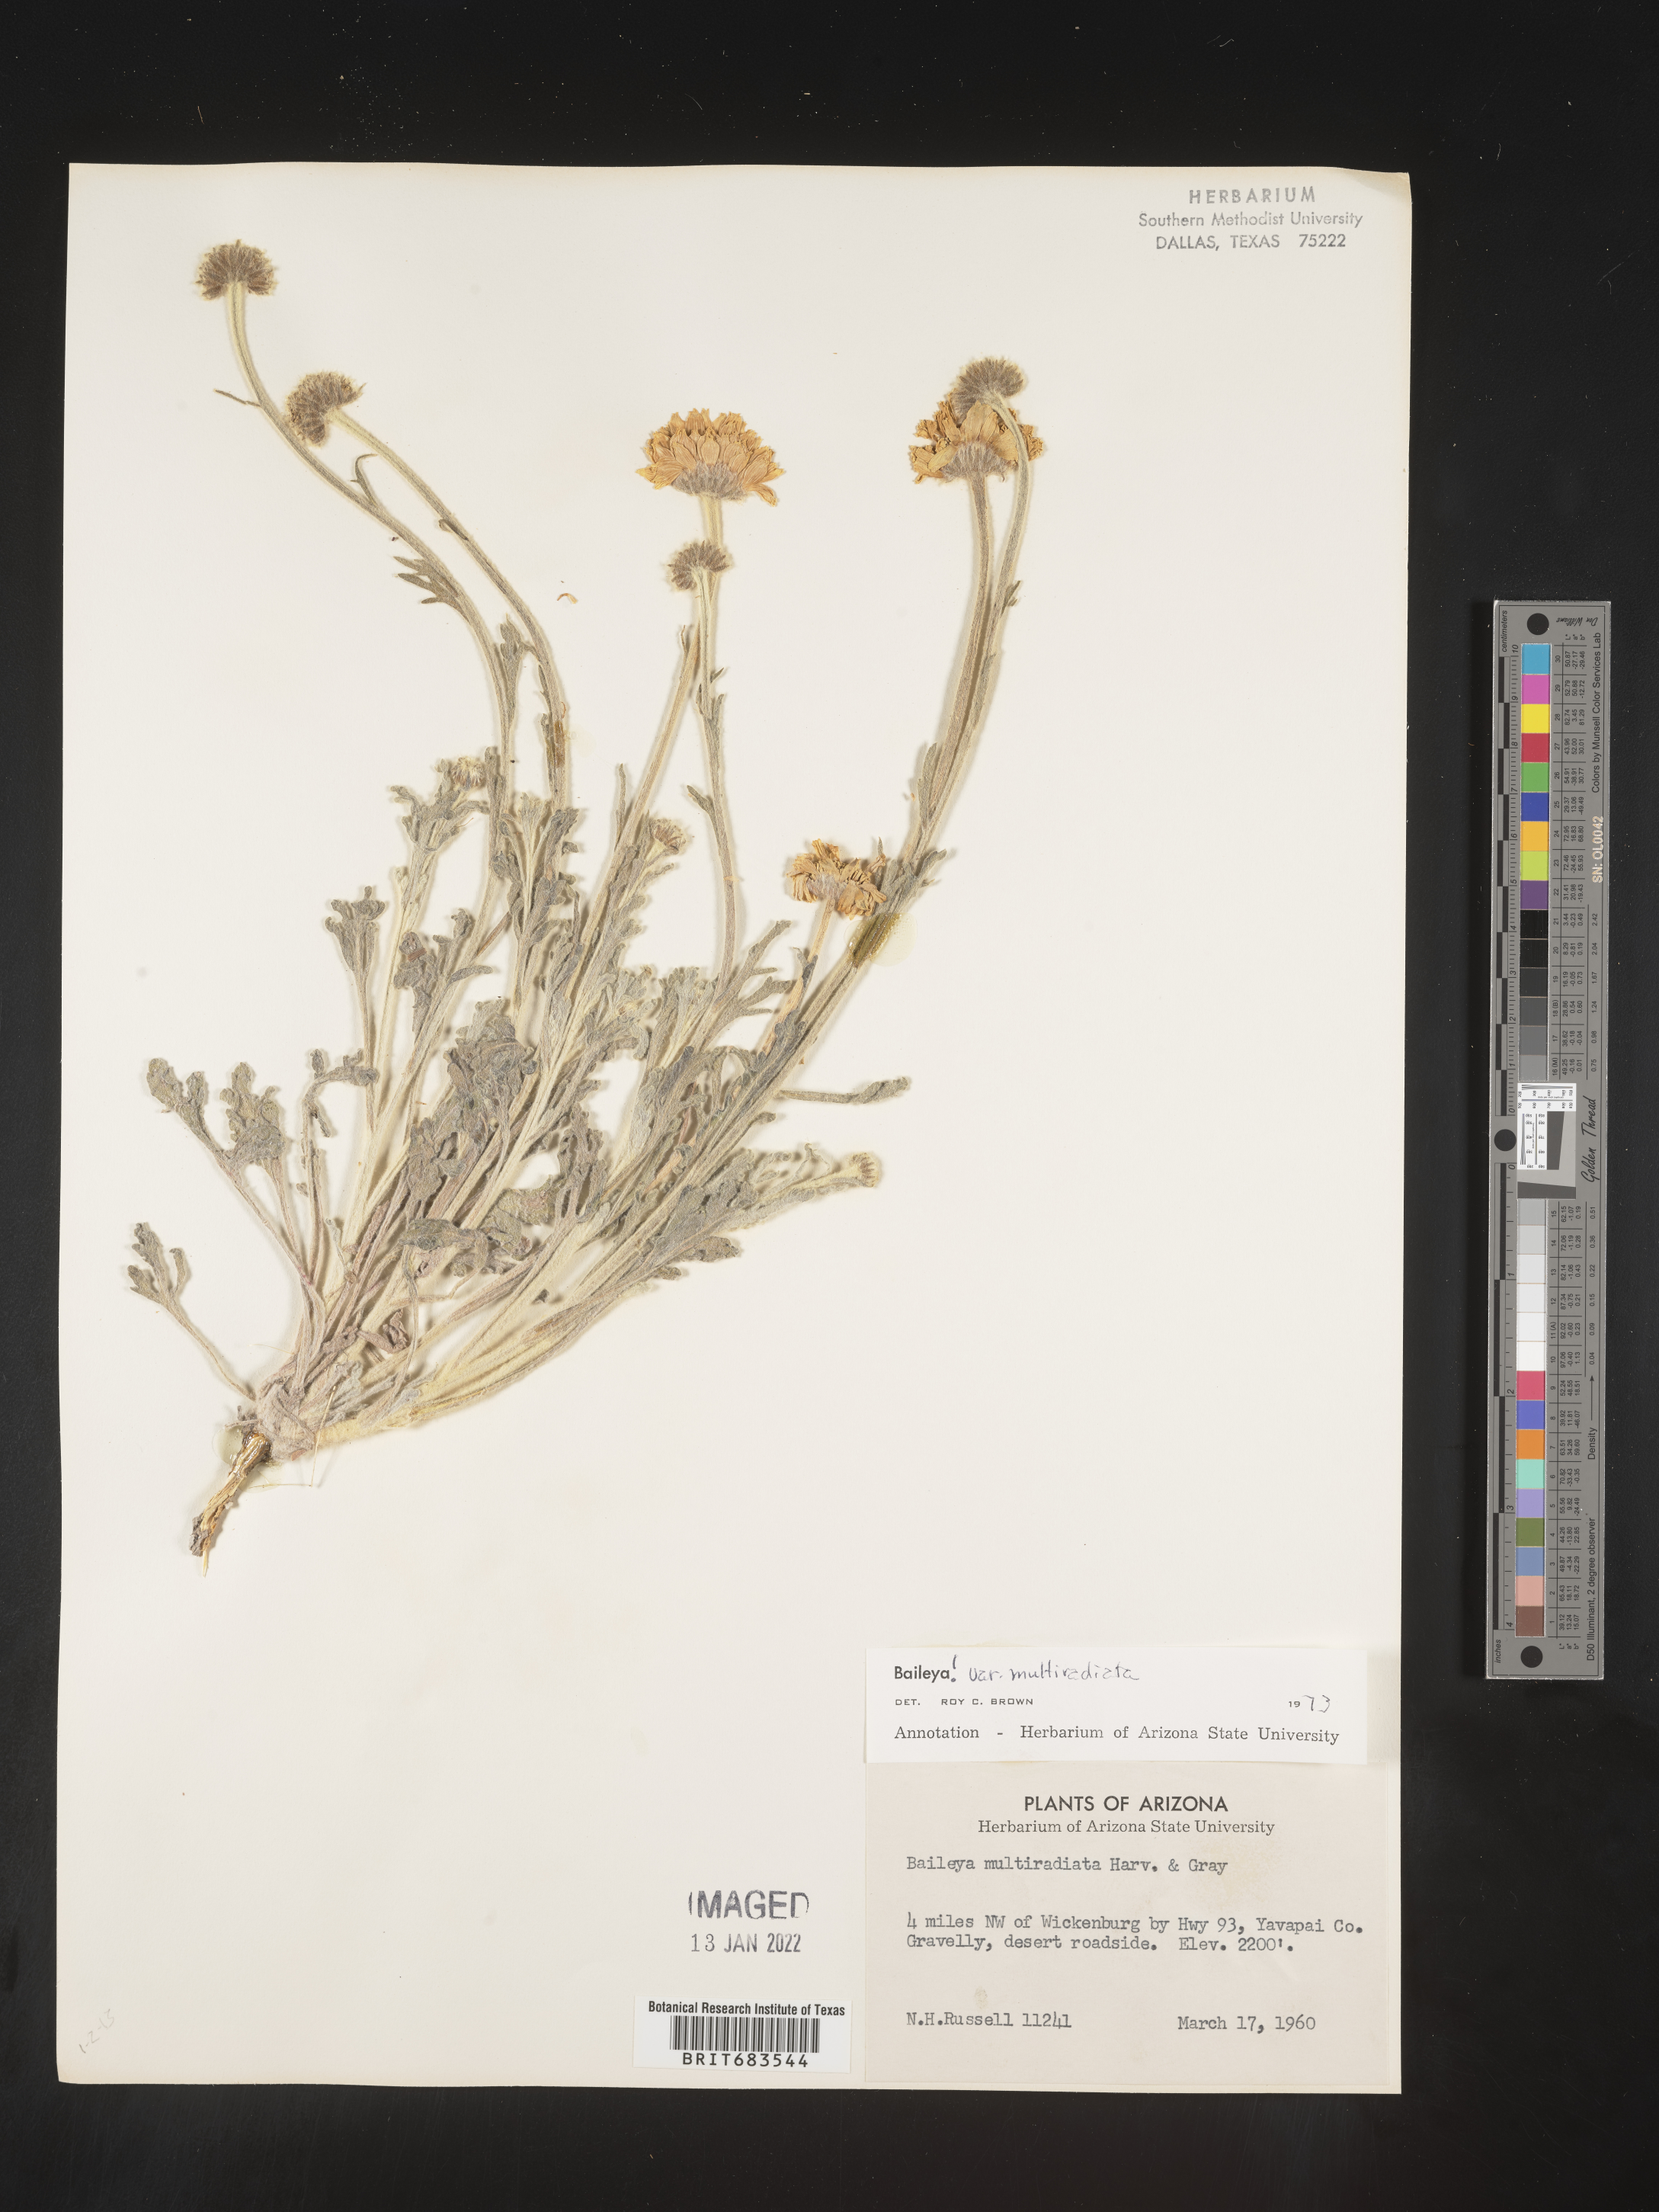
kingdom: Plantae
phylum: Tracheophyta
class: Magnoliopsida
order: Asterales
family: Asteraceae
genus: Baileya
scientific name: Baileya multiradiata
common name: Desert-marigold
